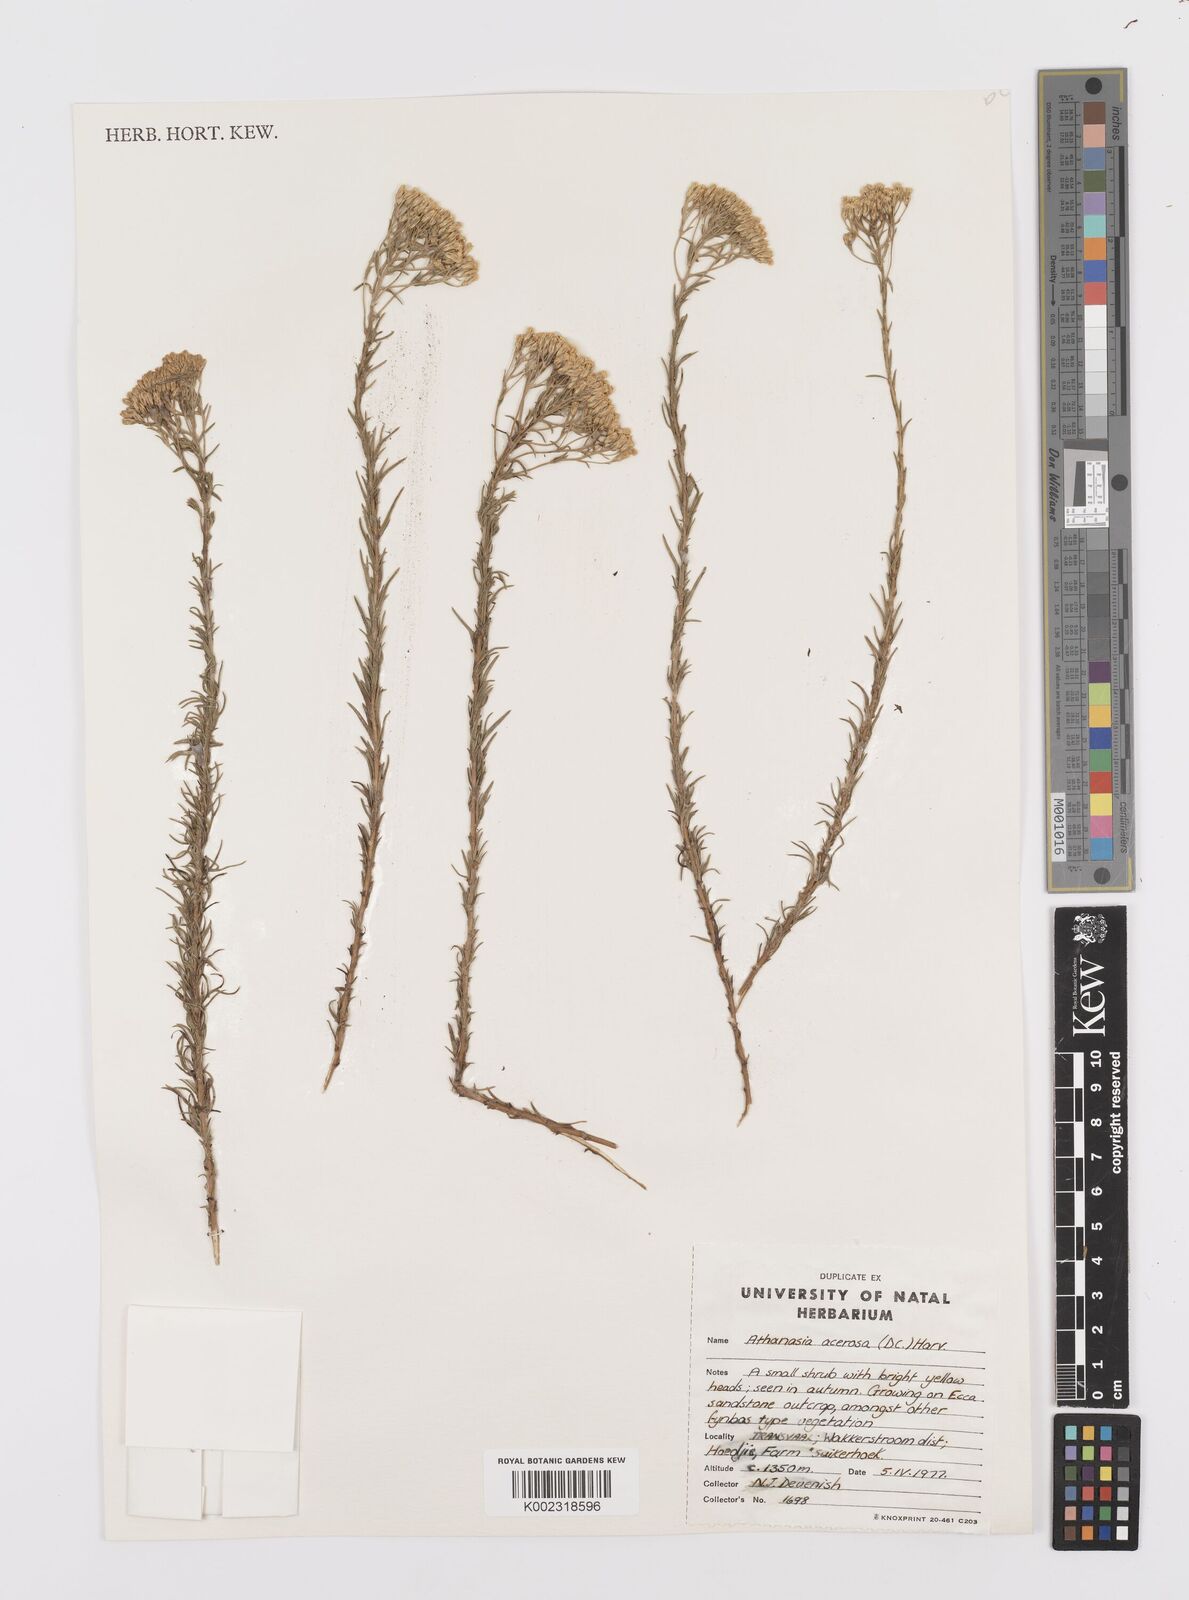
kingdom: Plantae
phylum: Tracheophyta
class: Magnoliopsida
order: Asterales
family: Asteraceae
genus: Phymaspermum
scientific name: Phymaspermum acerosum
